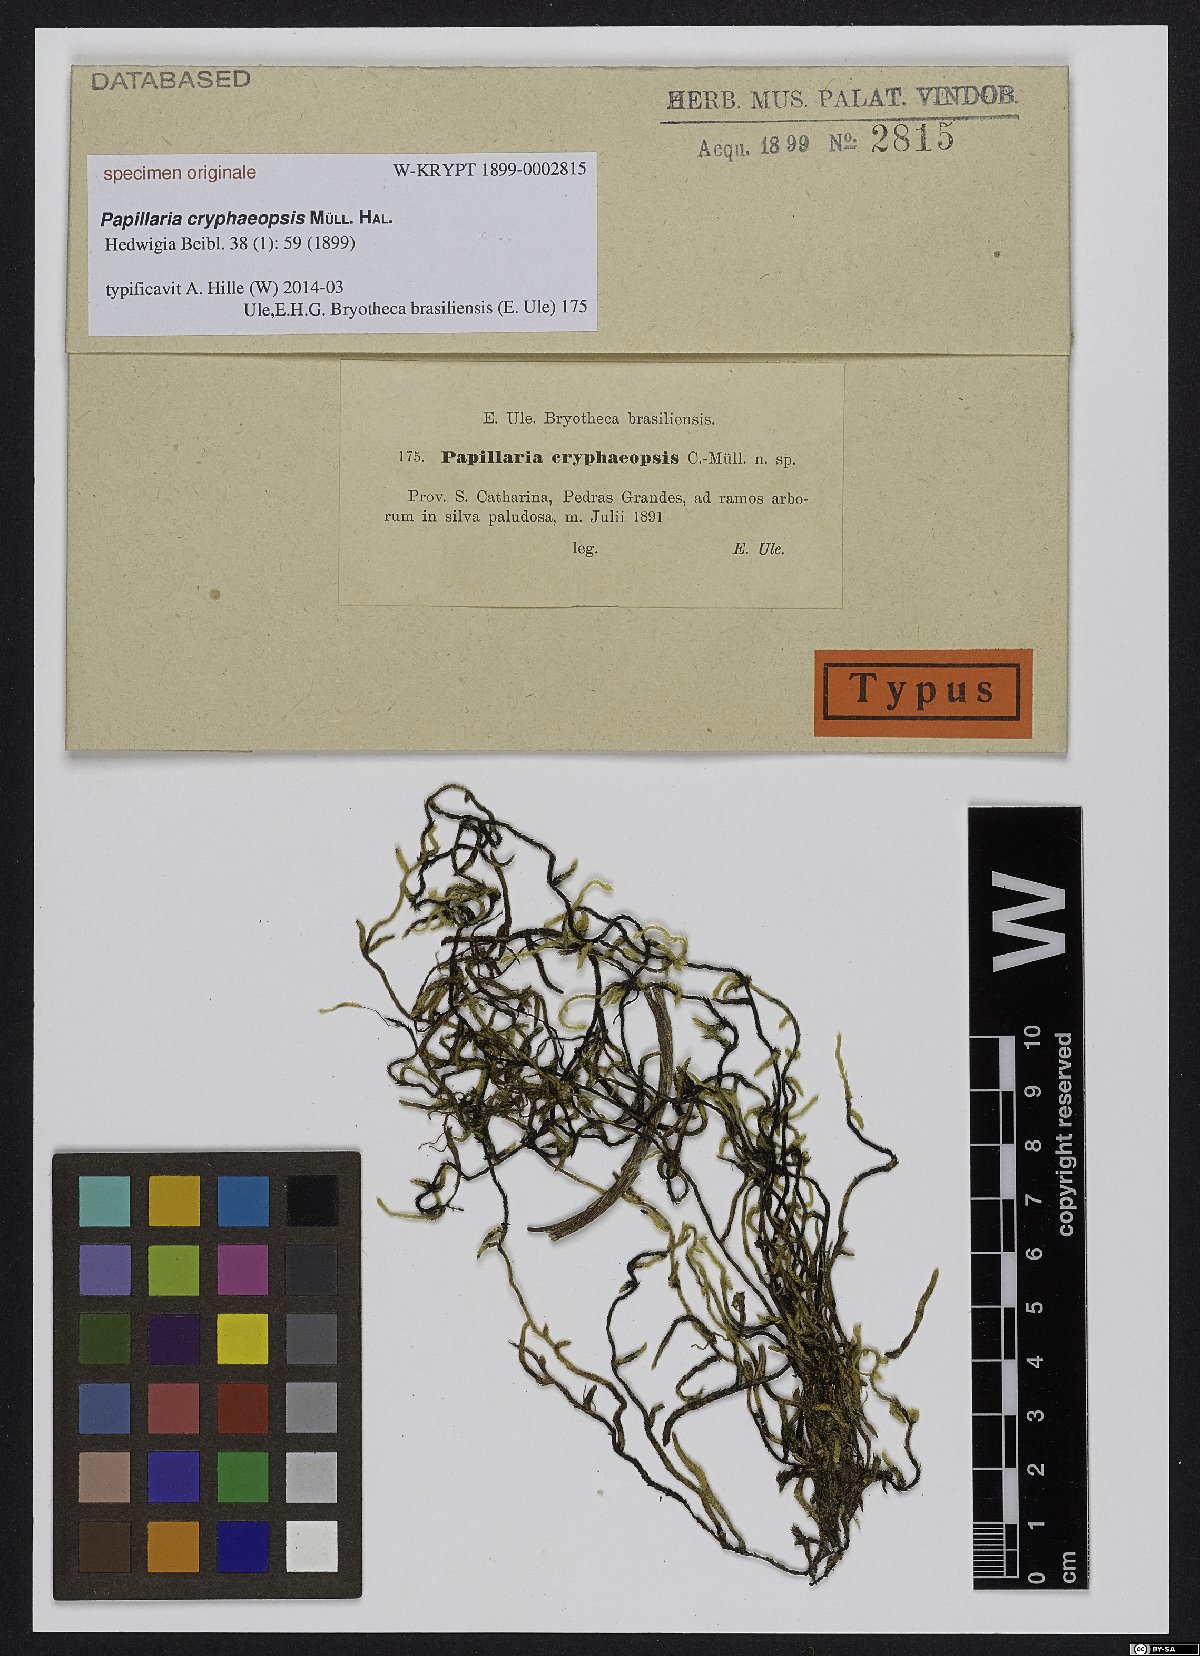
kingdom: Plantae
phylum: Bryophyta
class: Bryopsida
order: Hypnales
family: Meteoriaceae
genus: Papillaria
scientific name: Papillaria
